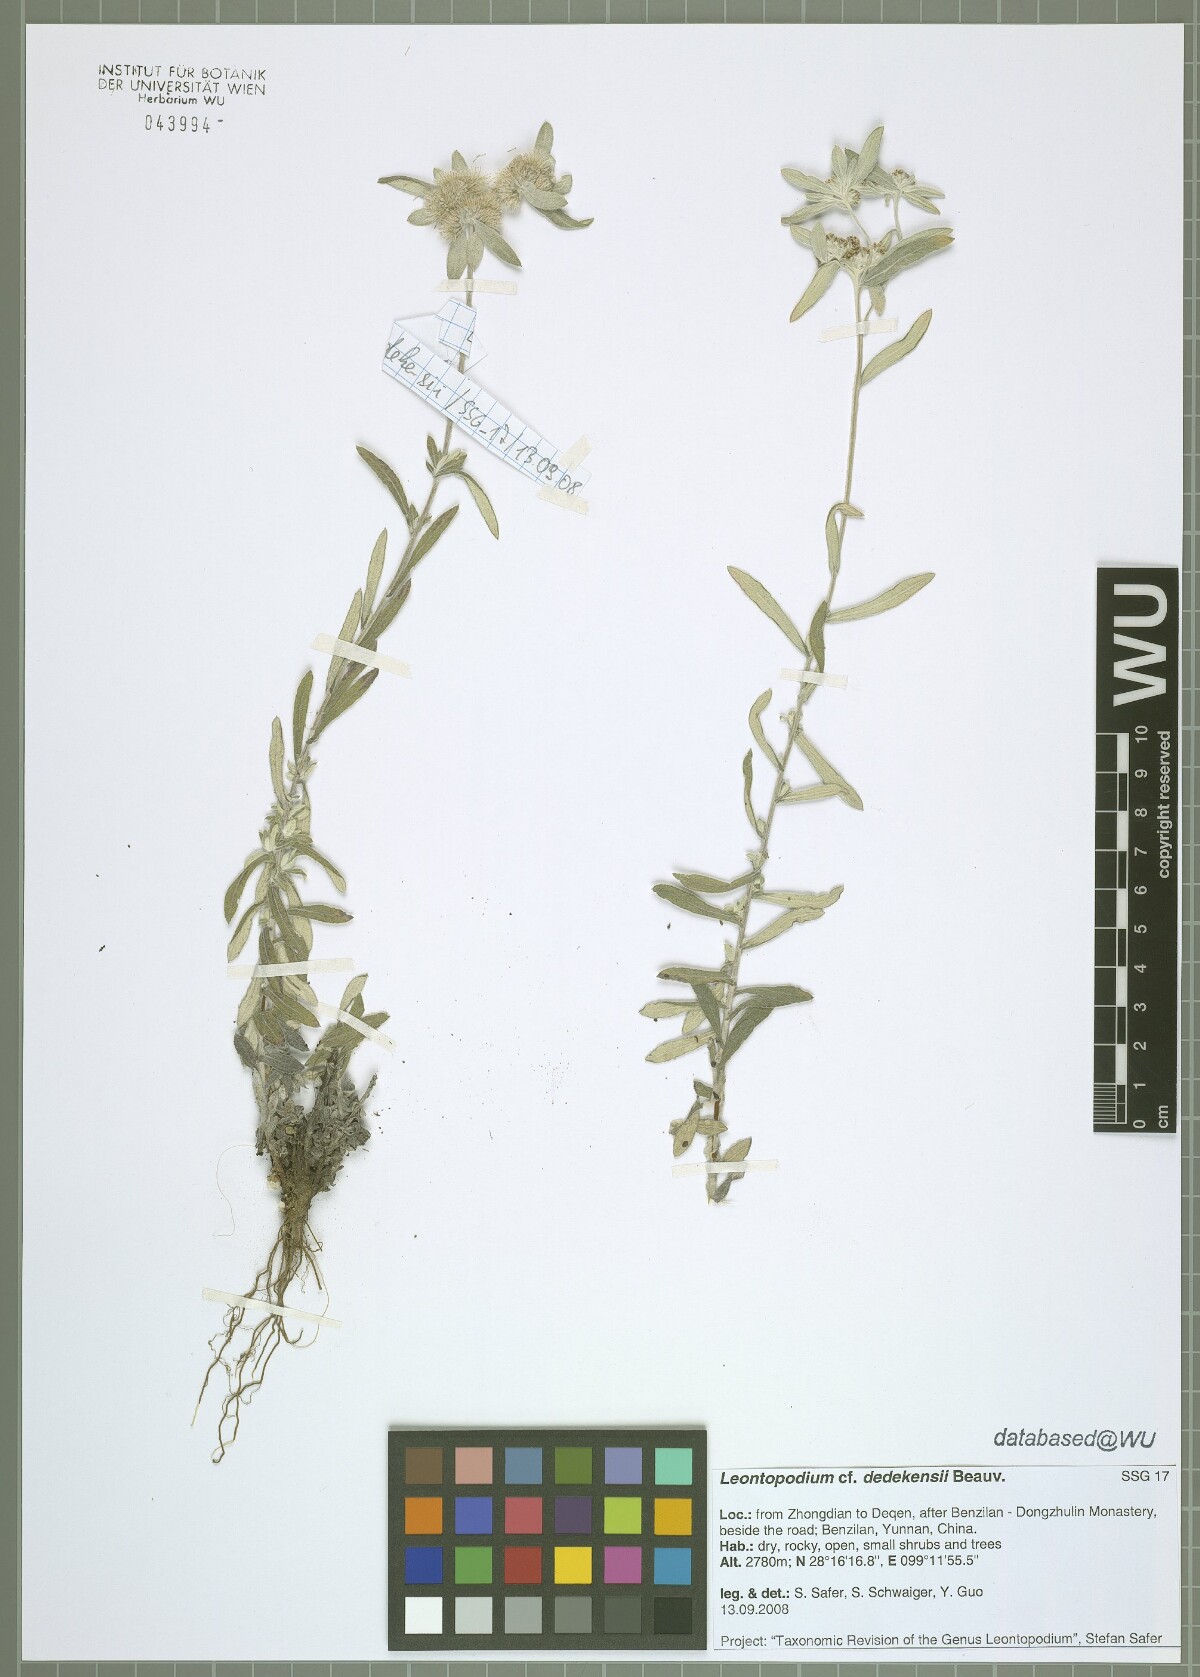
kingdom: Plantae
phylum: Tracheophyta
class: Magnoliopsida
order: Asterales
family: Asteraceae
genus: Leontopodium
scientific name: Leontopodium dedekensii
